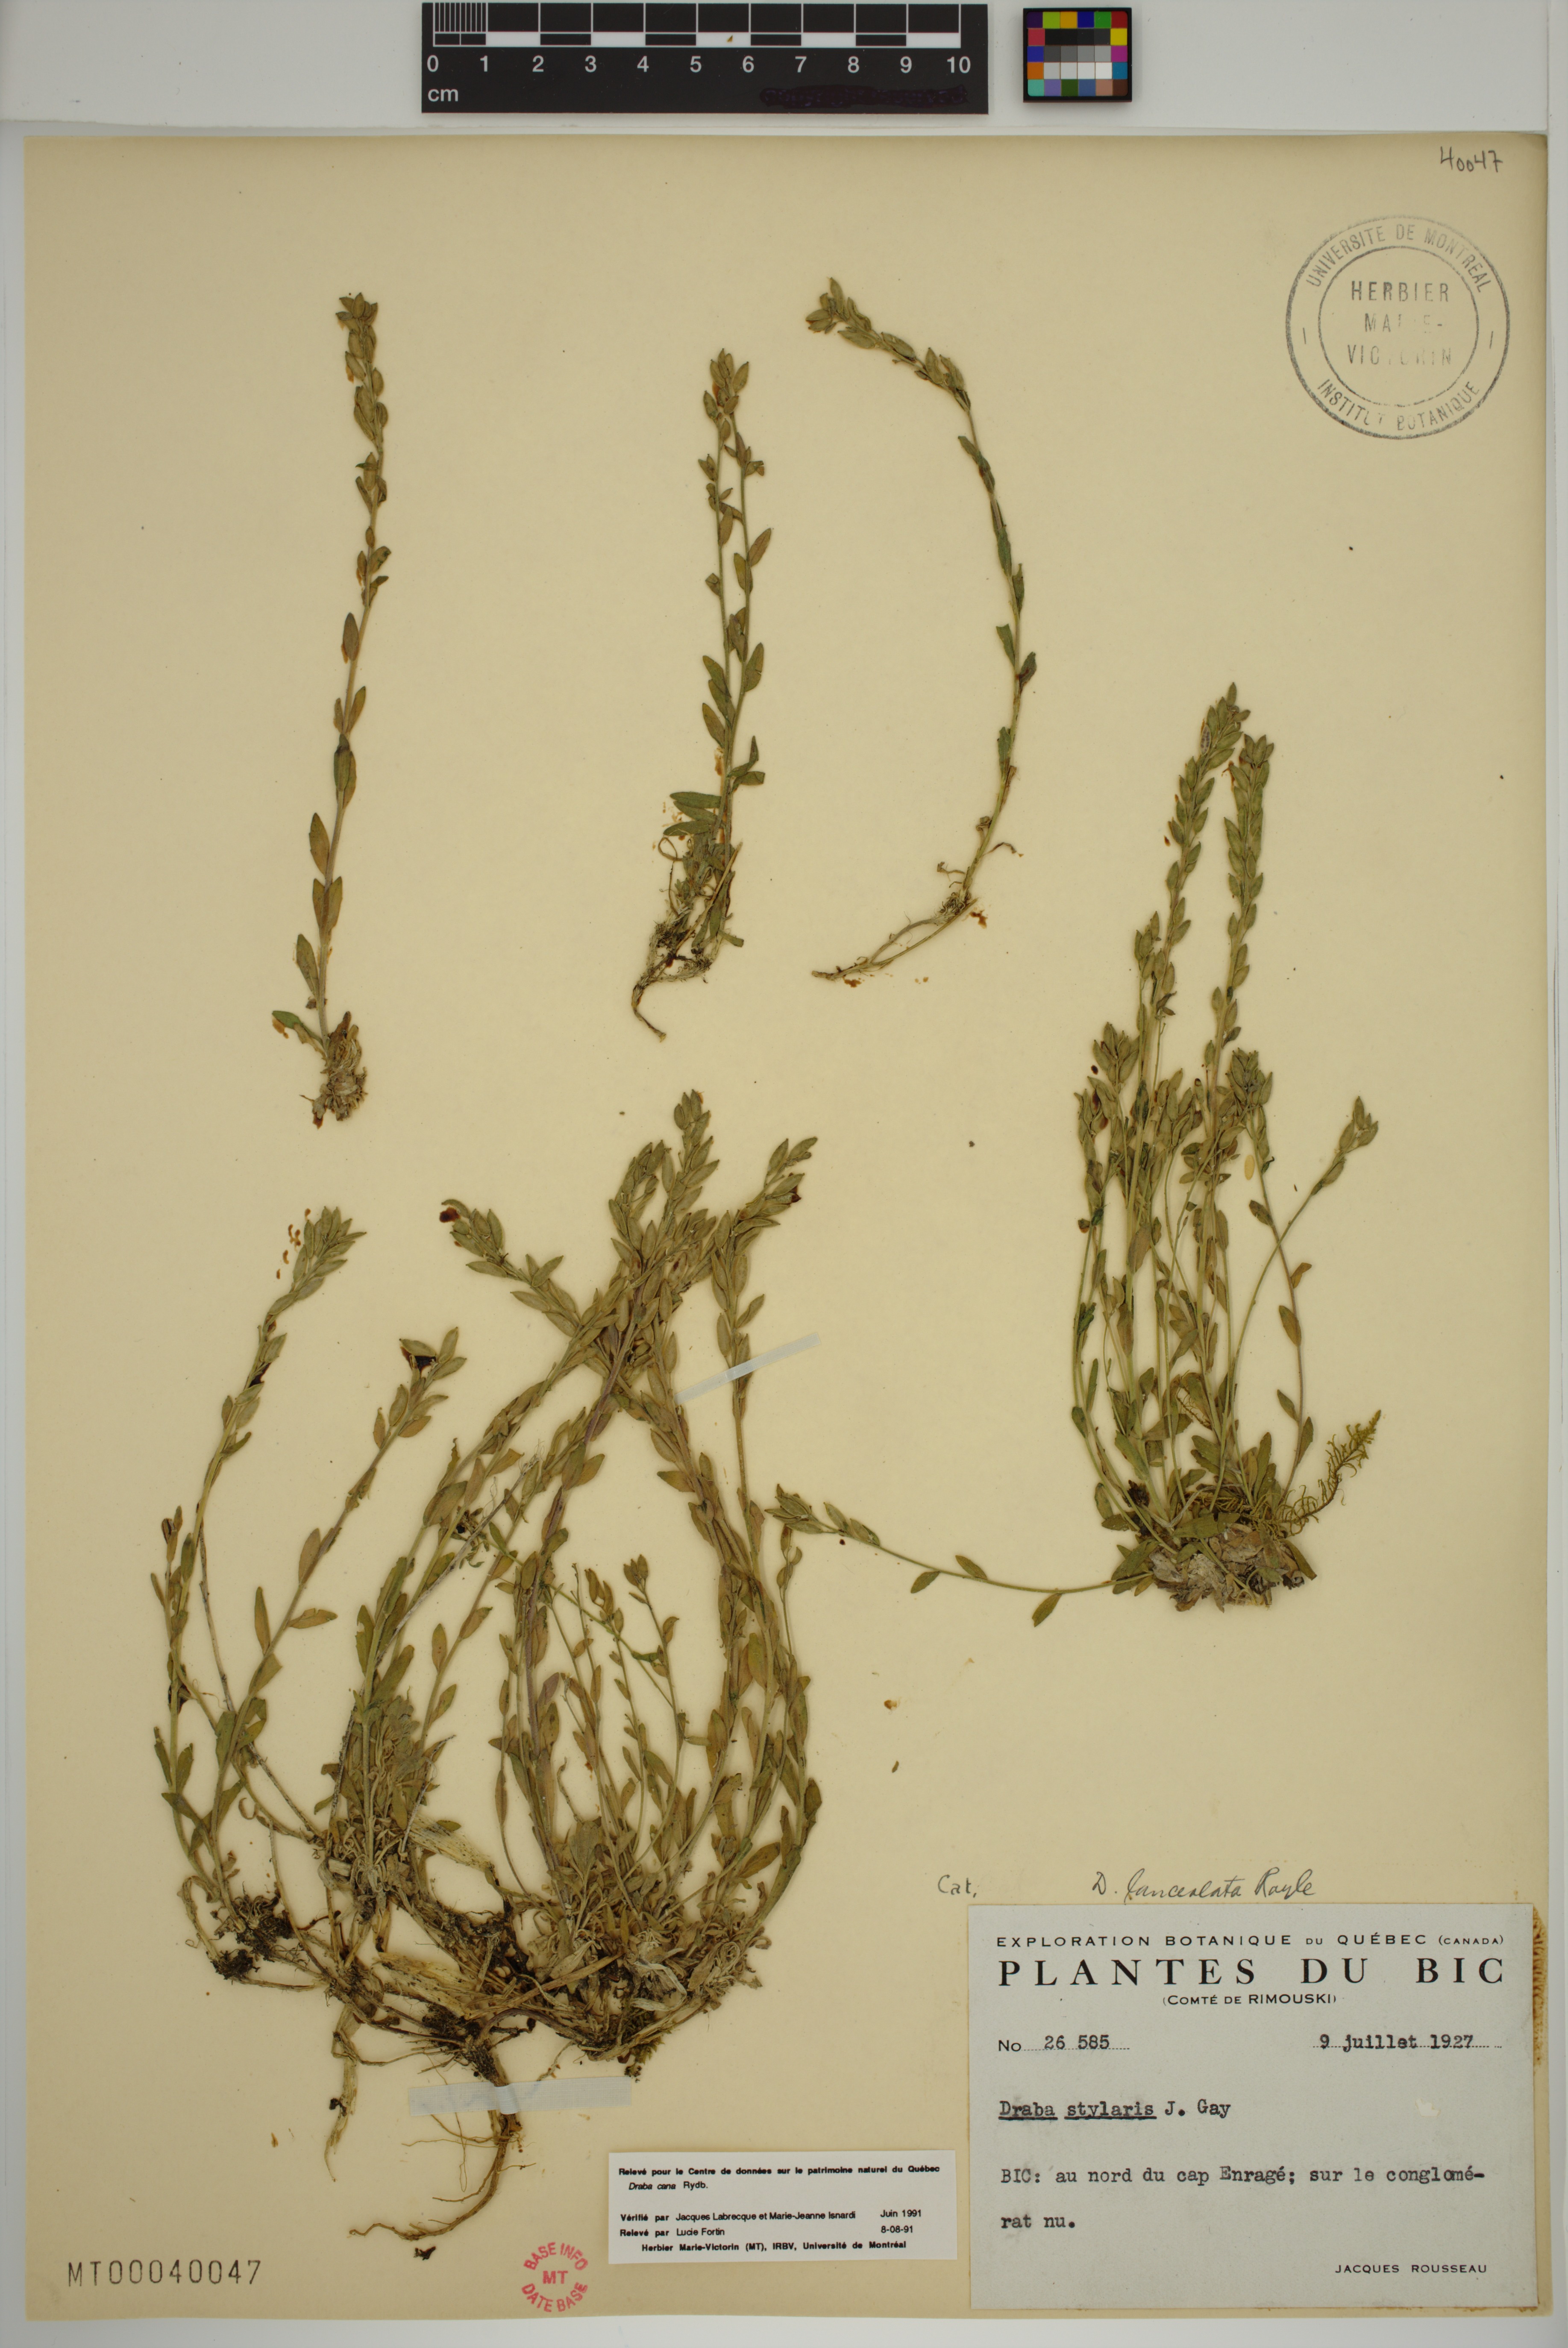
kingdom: Plantae
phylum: Tracheophyta
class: Magnoliopsida
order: Brassicales
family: Brassicaceae
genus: Draba
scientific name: Draba cana
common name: Hoary draba
